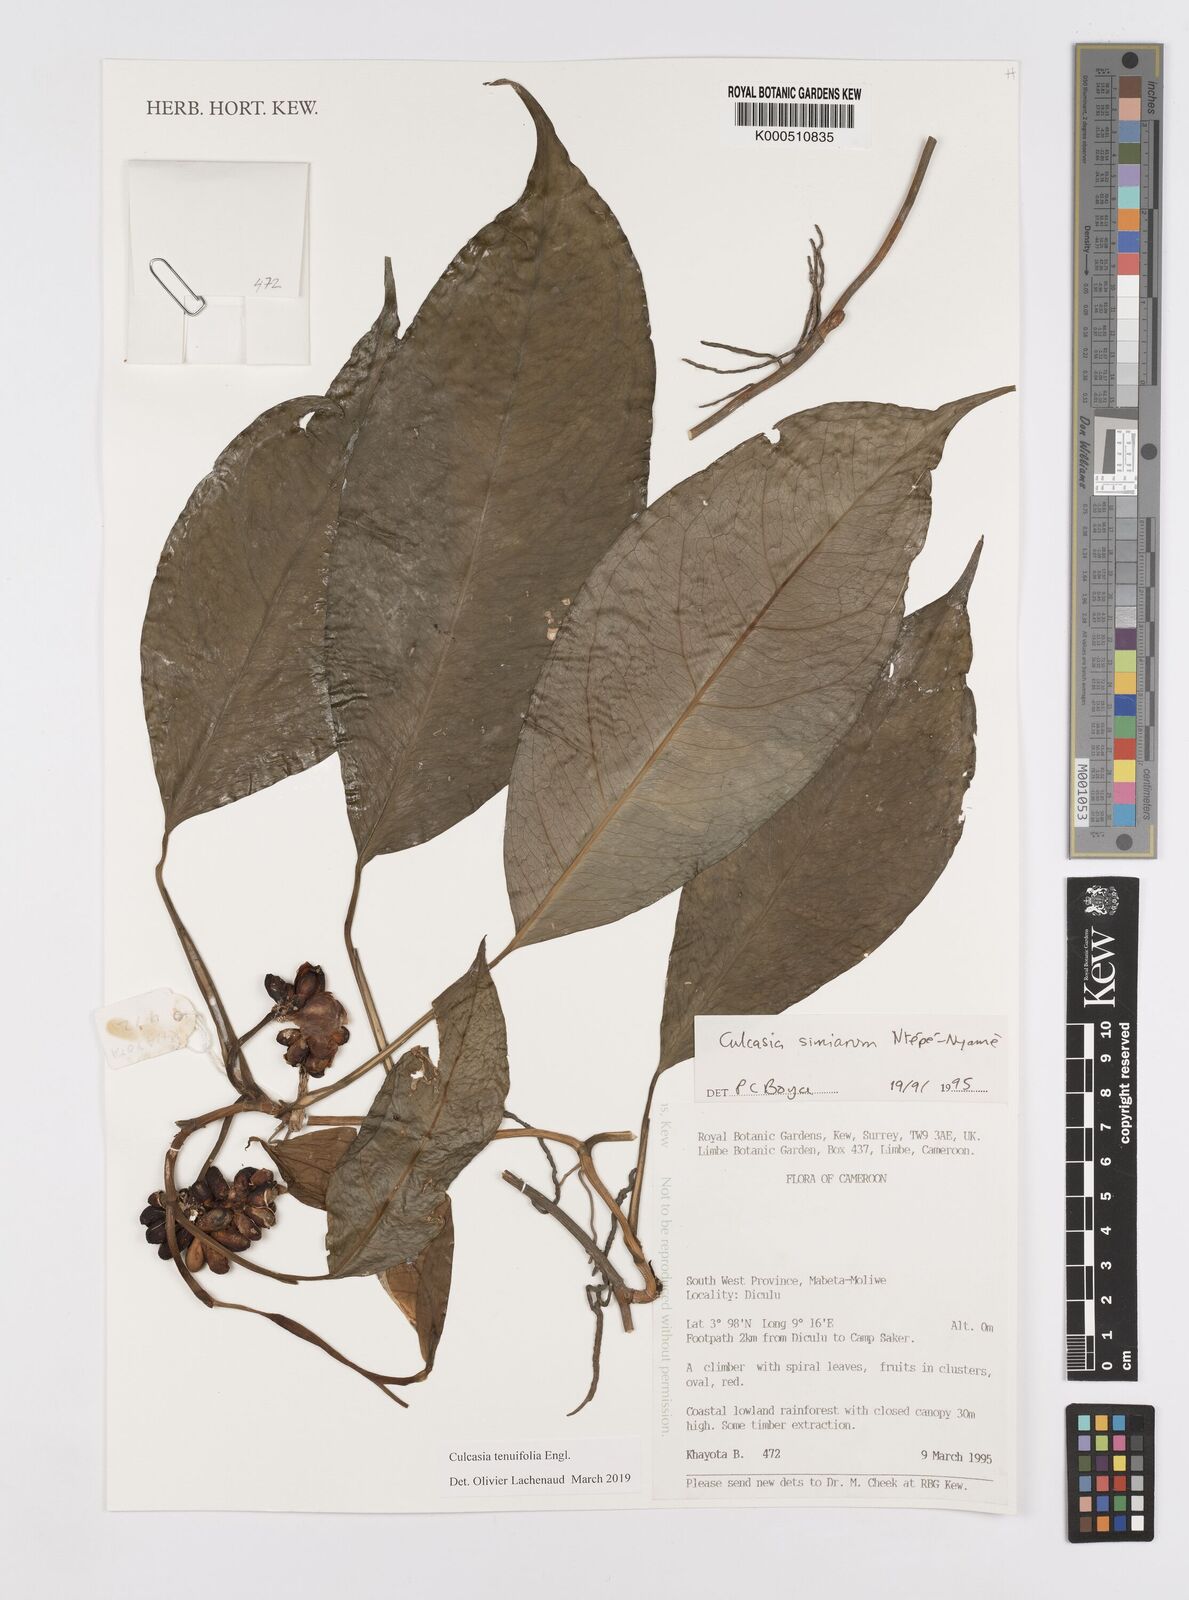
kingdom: Plantae
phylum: Tracheophyta
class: Liliopsida
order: Alismatales
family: Araceae
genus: Culcasia
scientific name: Culcasia tenuifolia
